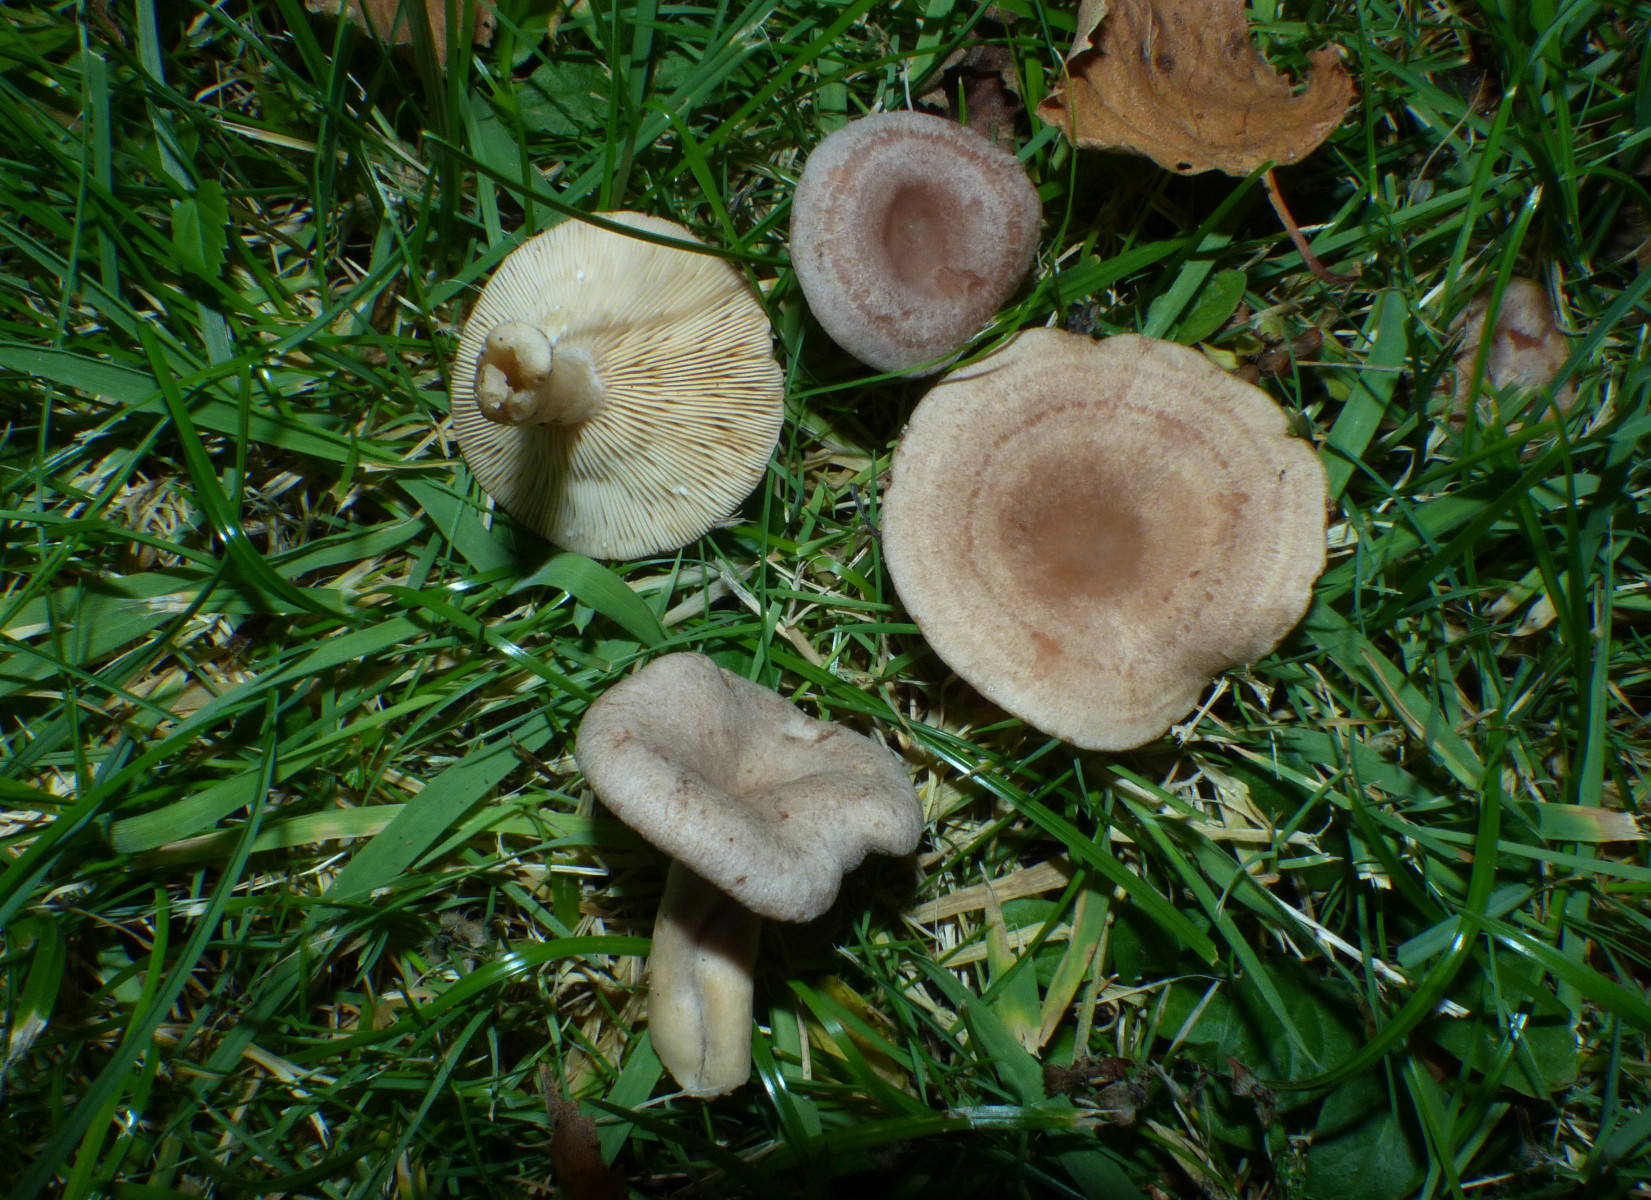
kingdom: Fungi
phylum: Basidiomycota
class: Agaricomycetes
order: Russulales
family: Russulaceae
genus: Lactarius
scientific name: Lactarius glyciosmus
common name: kokos-mælkehat
